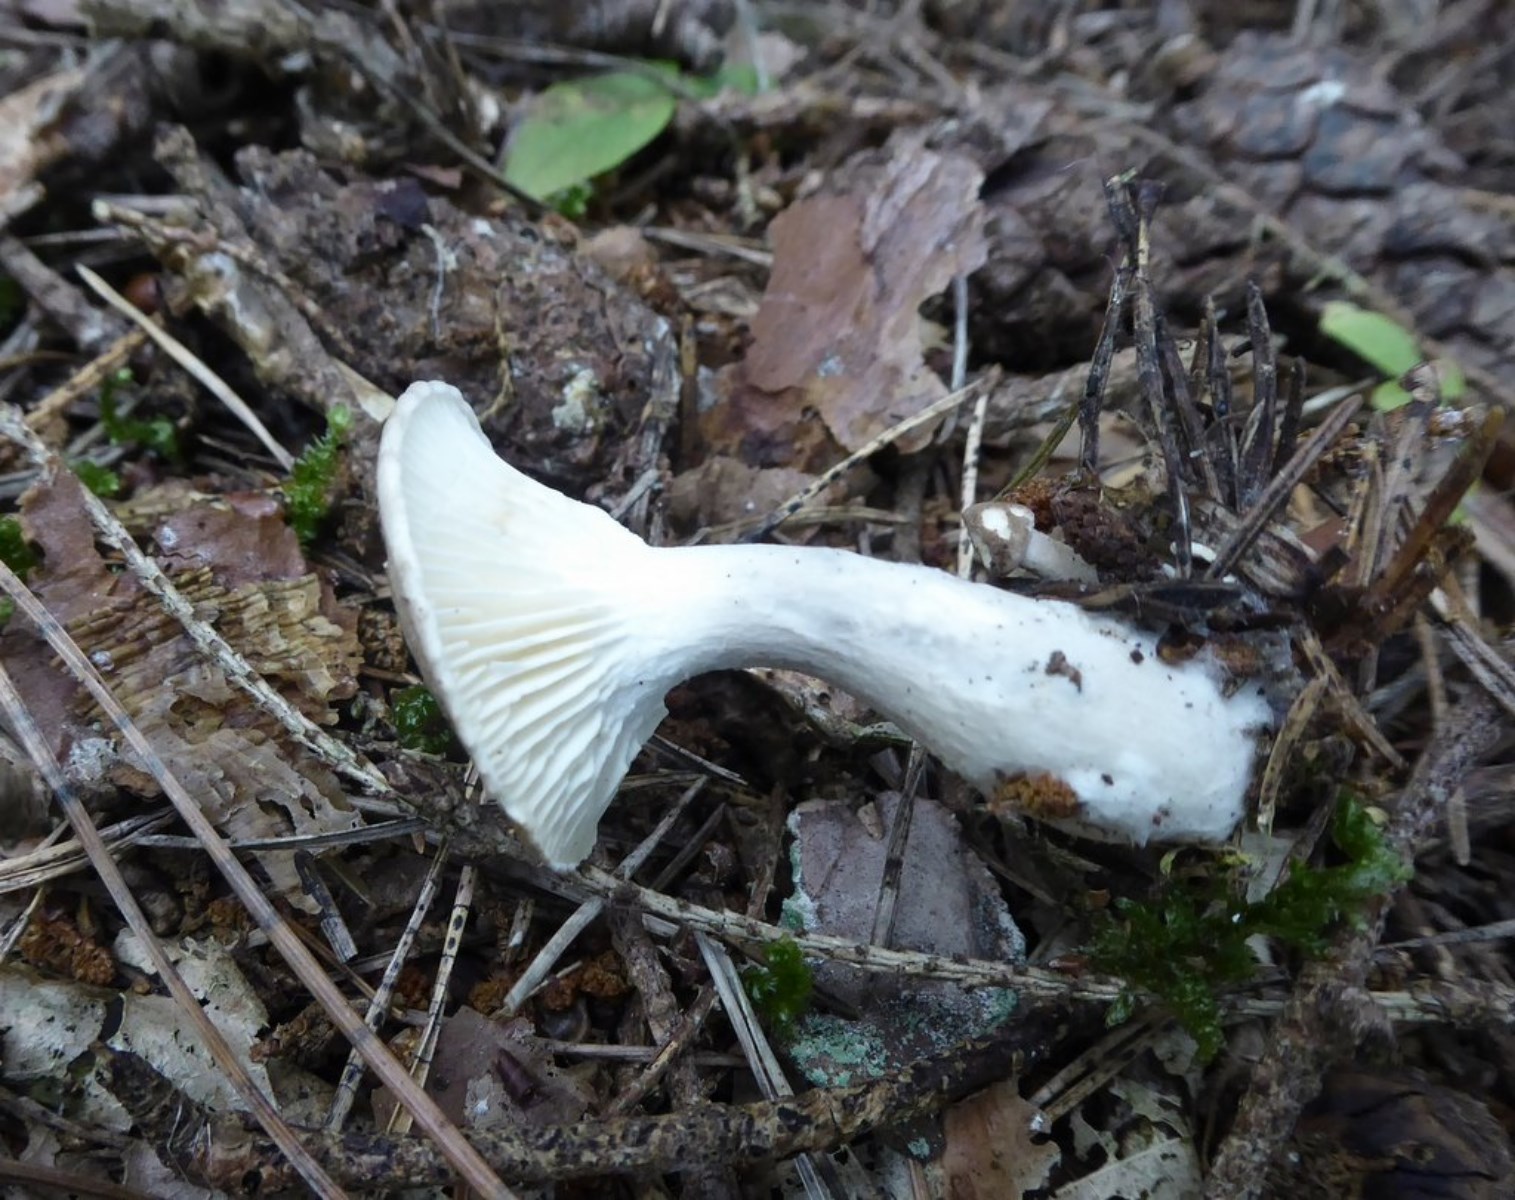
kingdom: Fungi
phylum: Basidiomycota
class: Agaricomycetes
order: Agaricales
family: Hygrophoraceae
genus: Ampulloclitocybe
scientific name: Ampulloclitocybe clavipes
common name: køllefod
